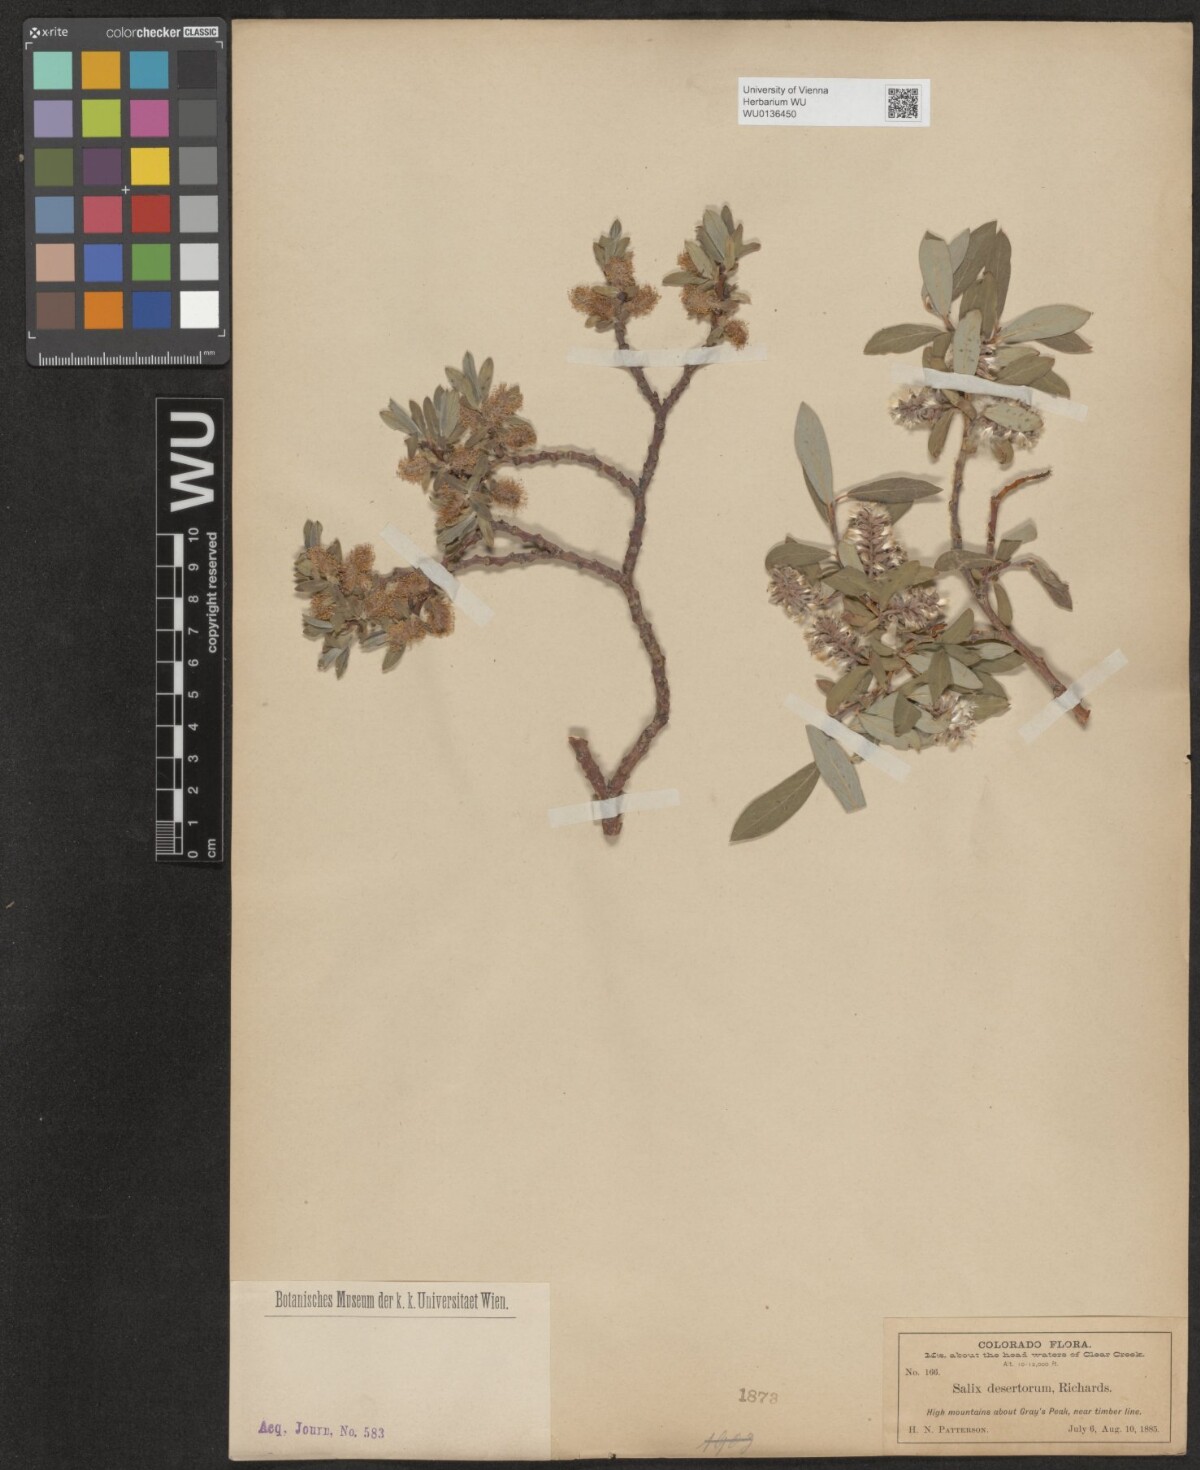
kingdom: Plantae
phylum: Tracheophyta
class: Magnoliopsida
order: Malpighiales
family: Salicaceae
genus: Salix
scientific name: Salix glauca
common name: Glaucous willow
